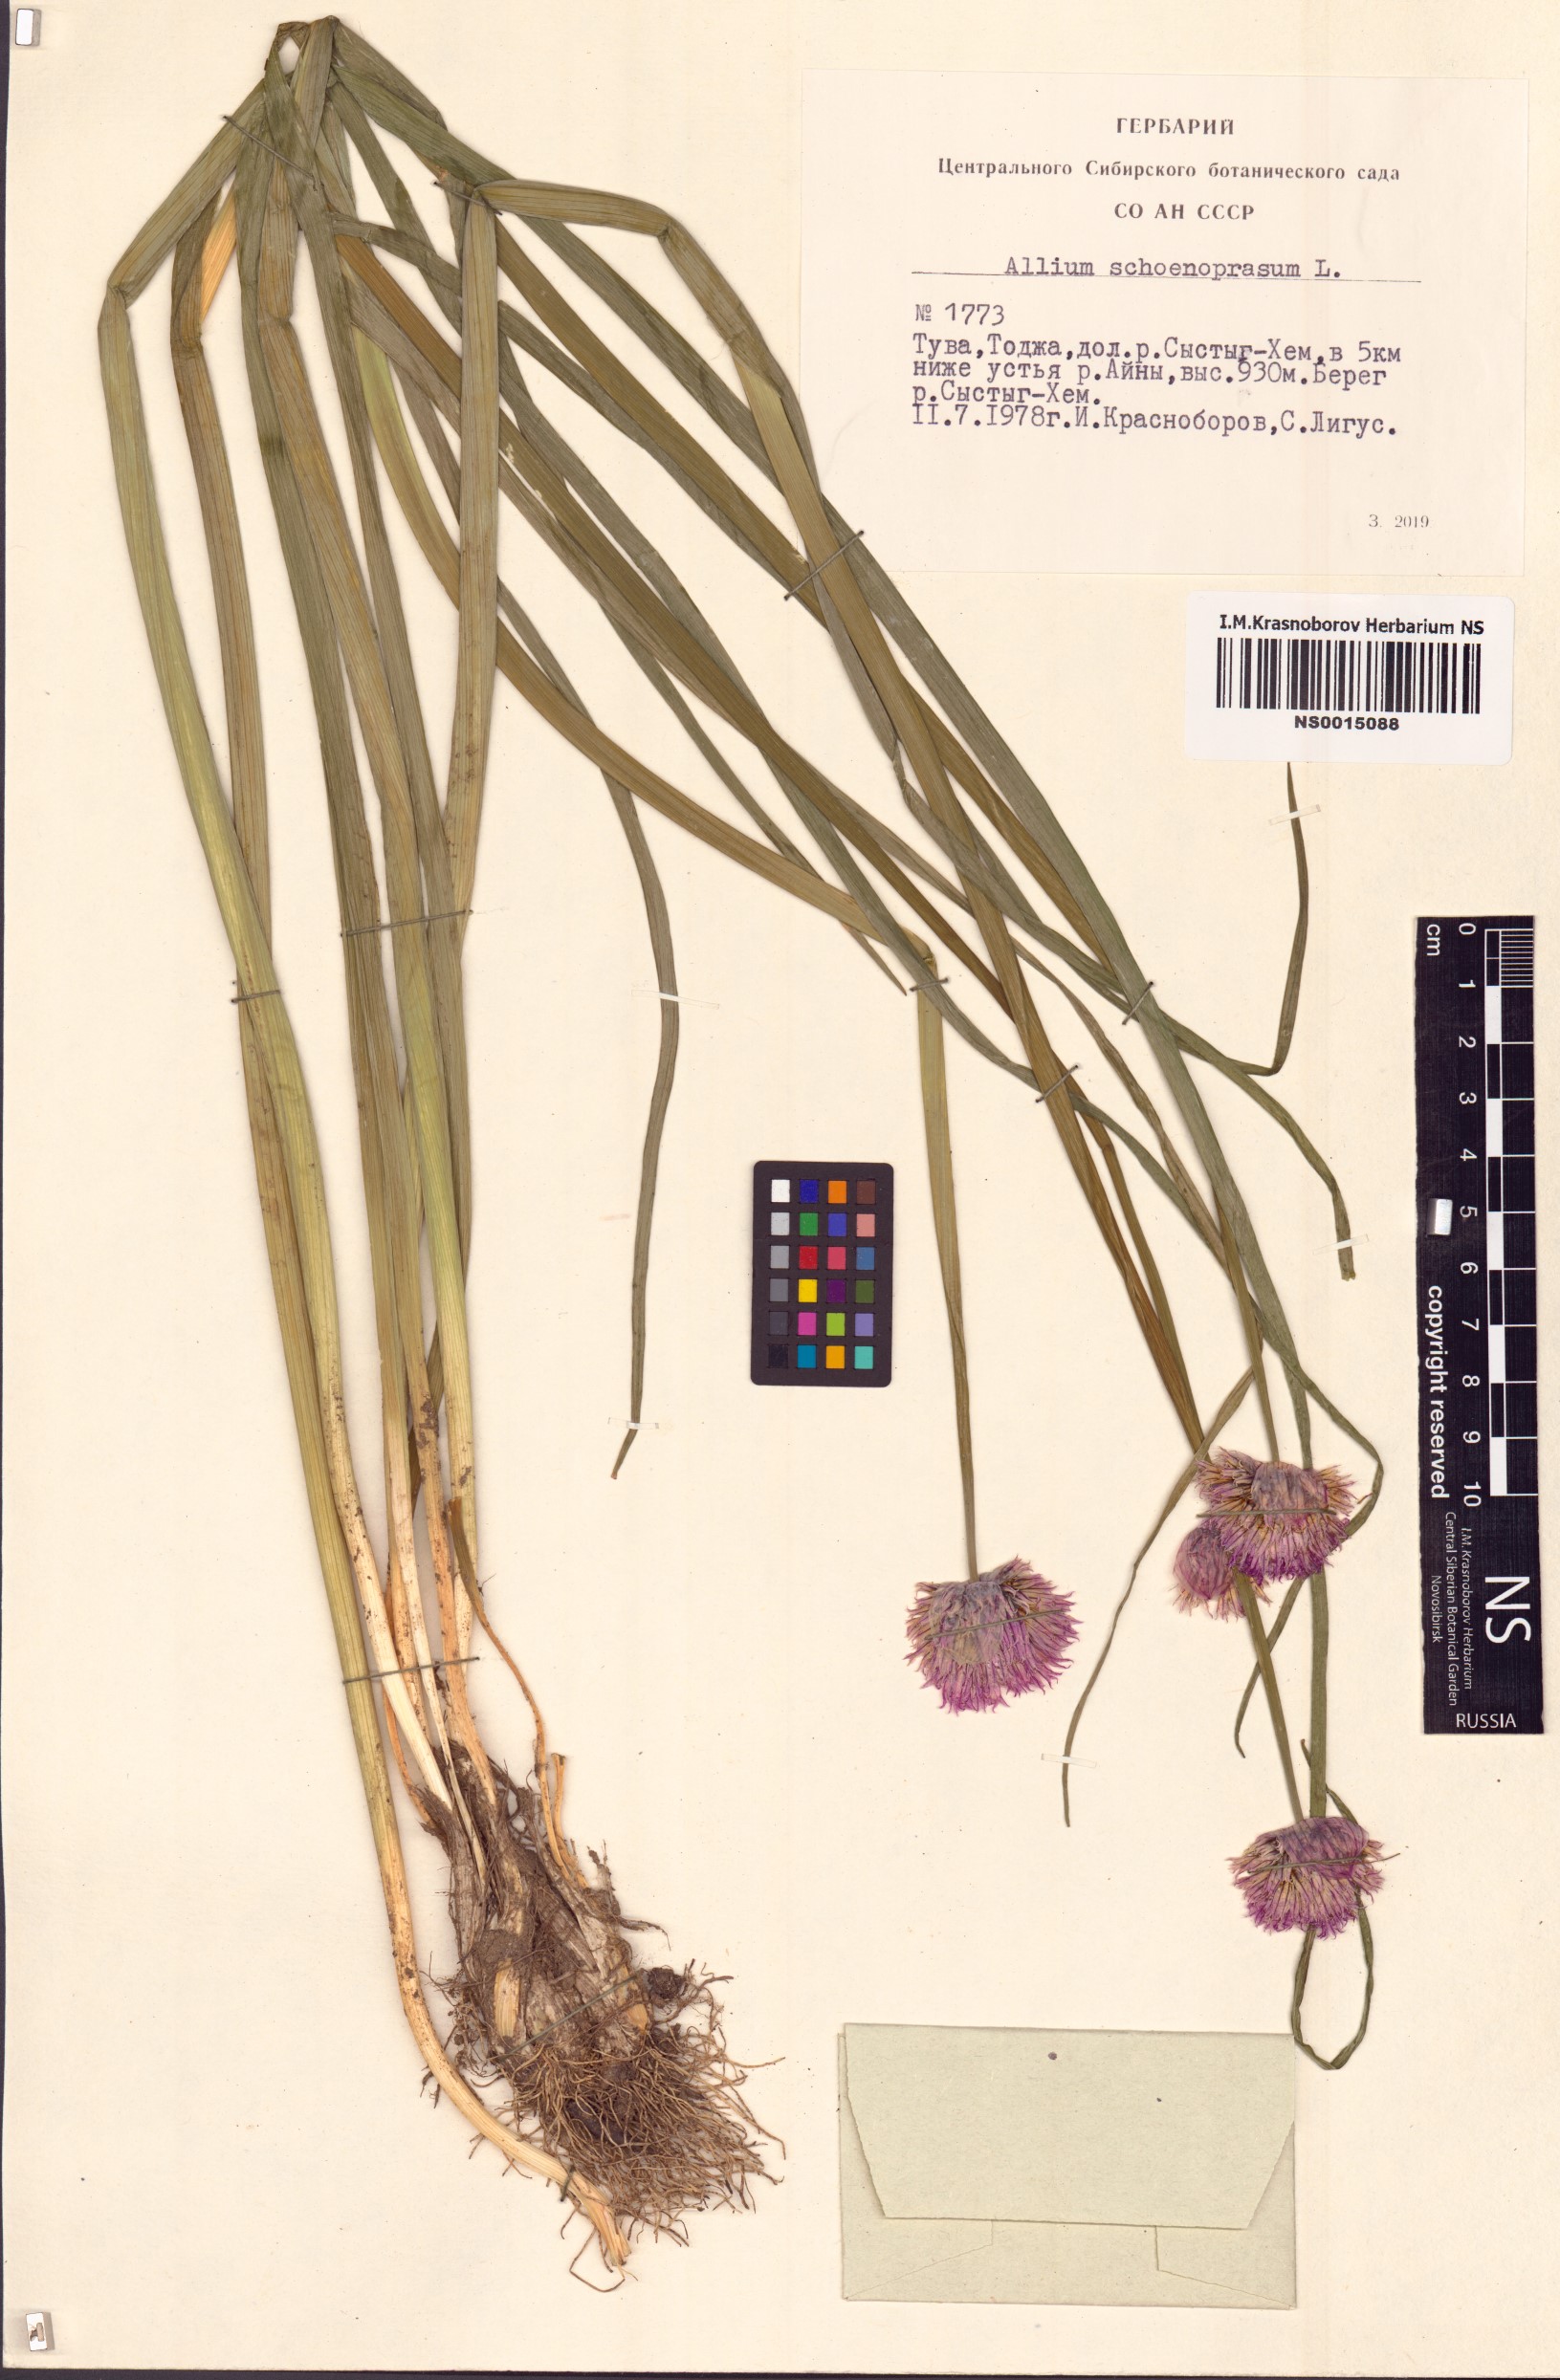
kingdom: Plantae
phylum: Tracheophyta
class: Liliopsida
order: Asparagales
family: Amaryllidaceae
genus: Allium
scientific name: Allium schoenoprasum
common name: Chives
